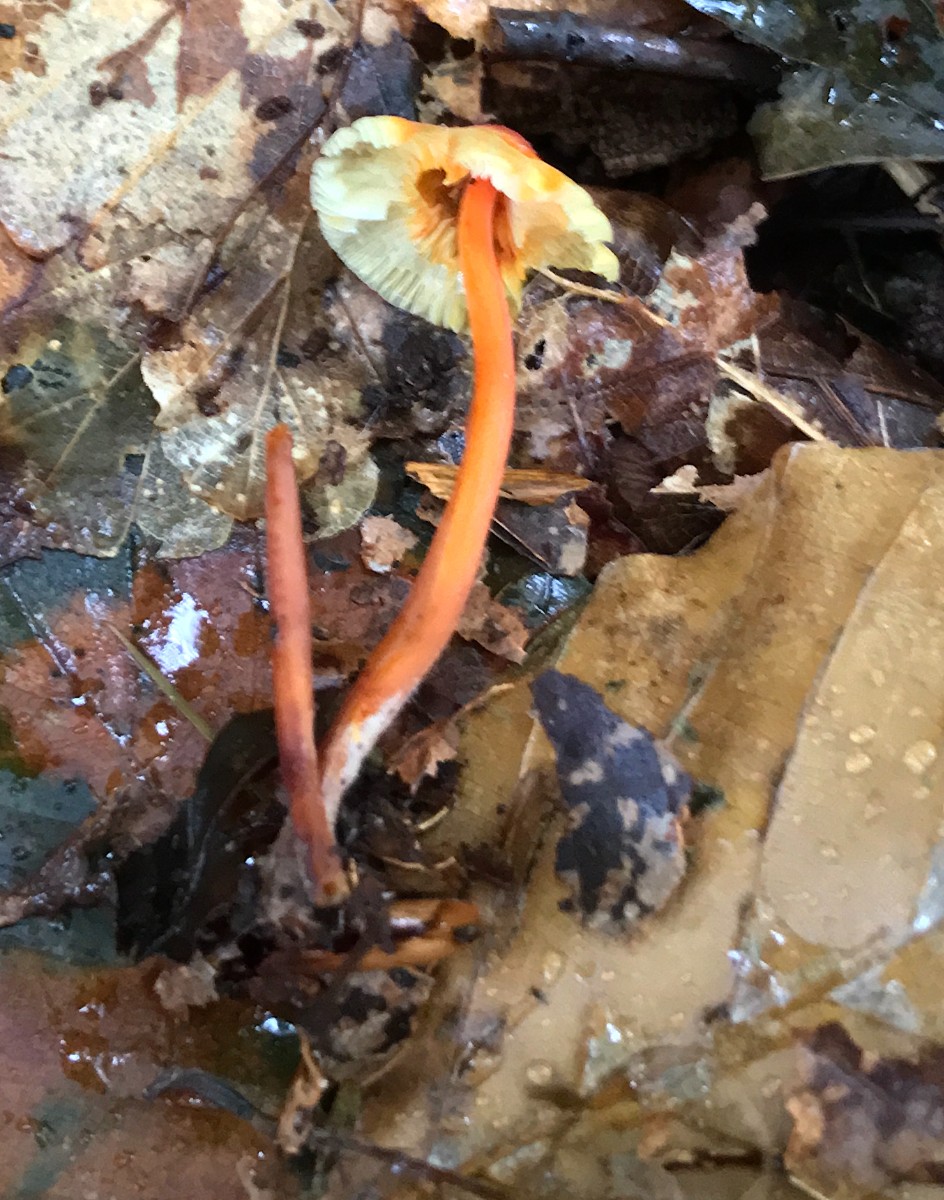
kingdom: Fungi
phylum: Basidiomycota
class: Agaricomycetes
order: Agaricales
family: Mycenaceae
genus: Mycena
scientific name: Mycena crocata
